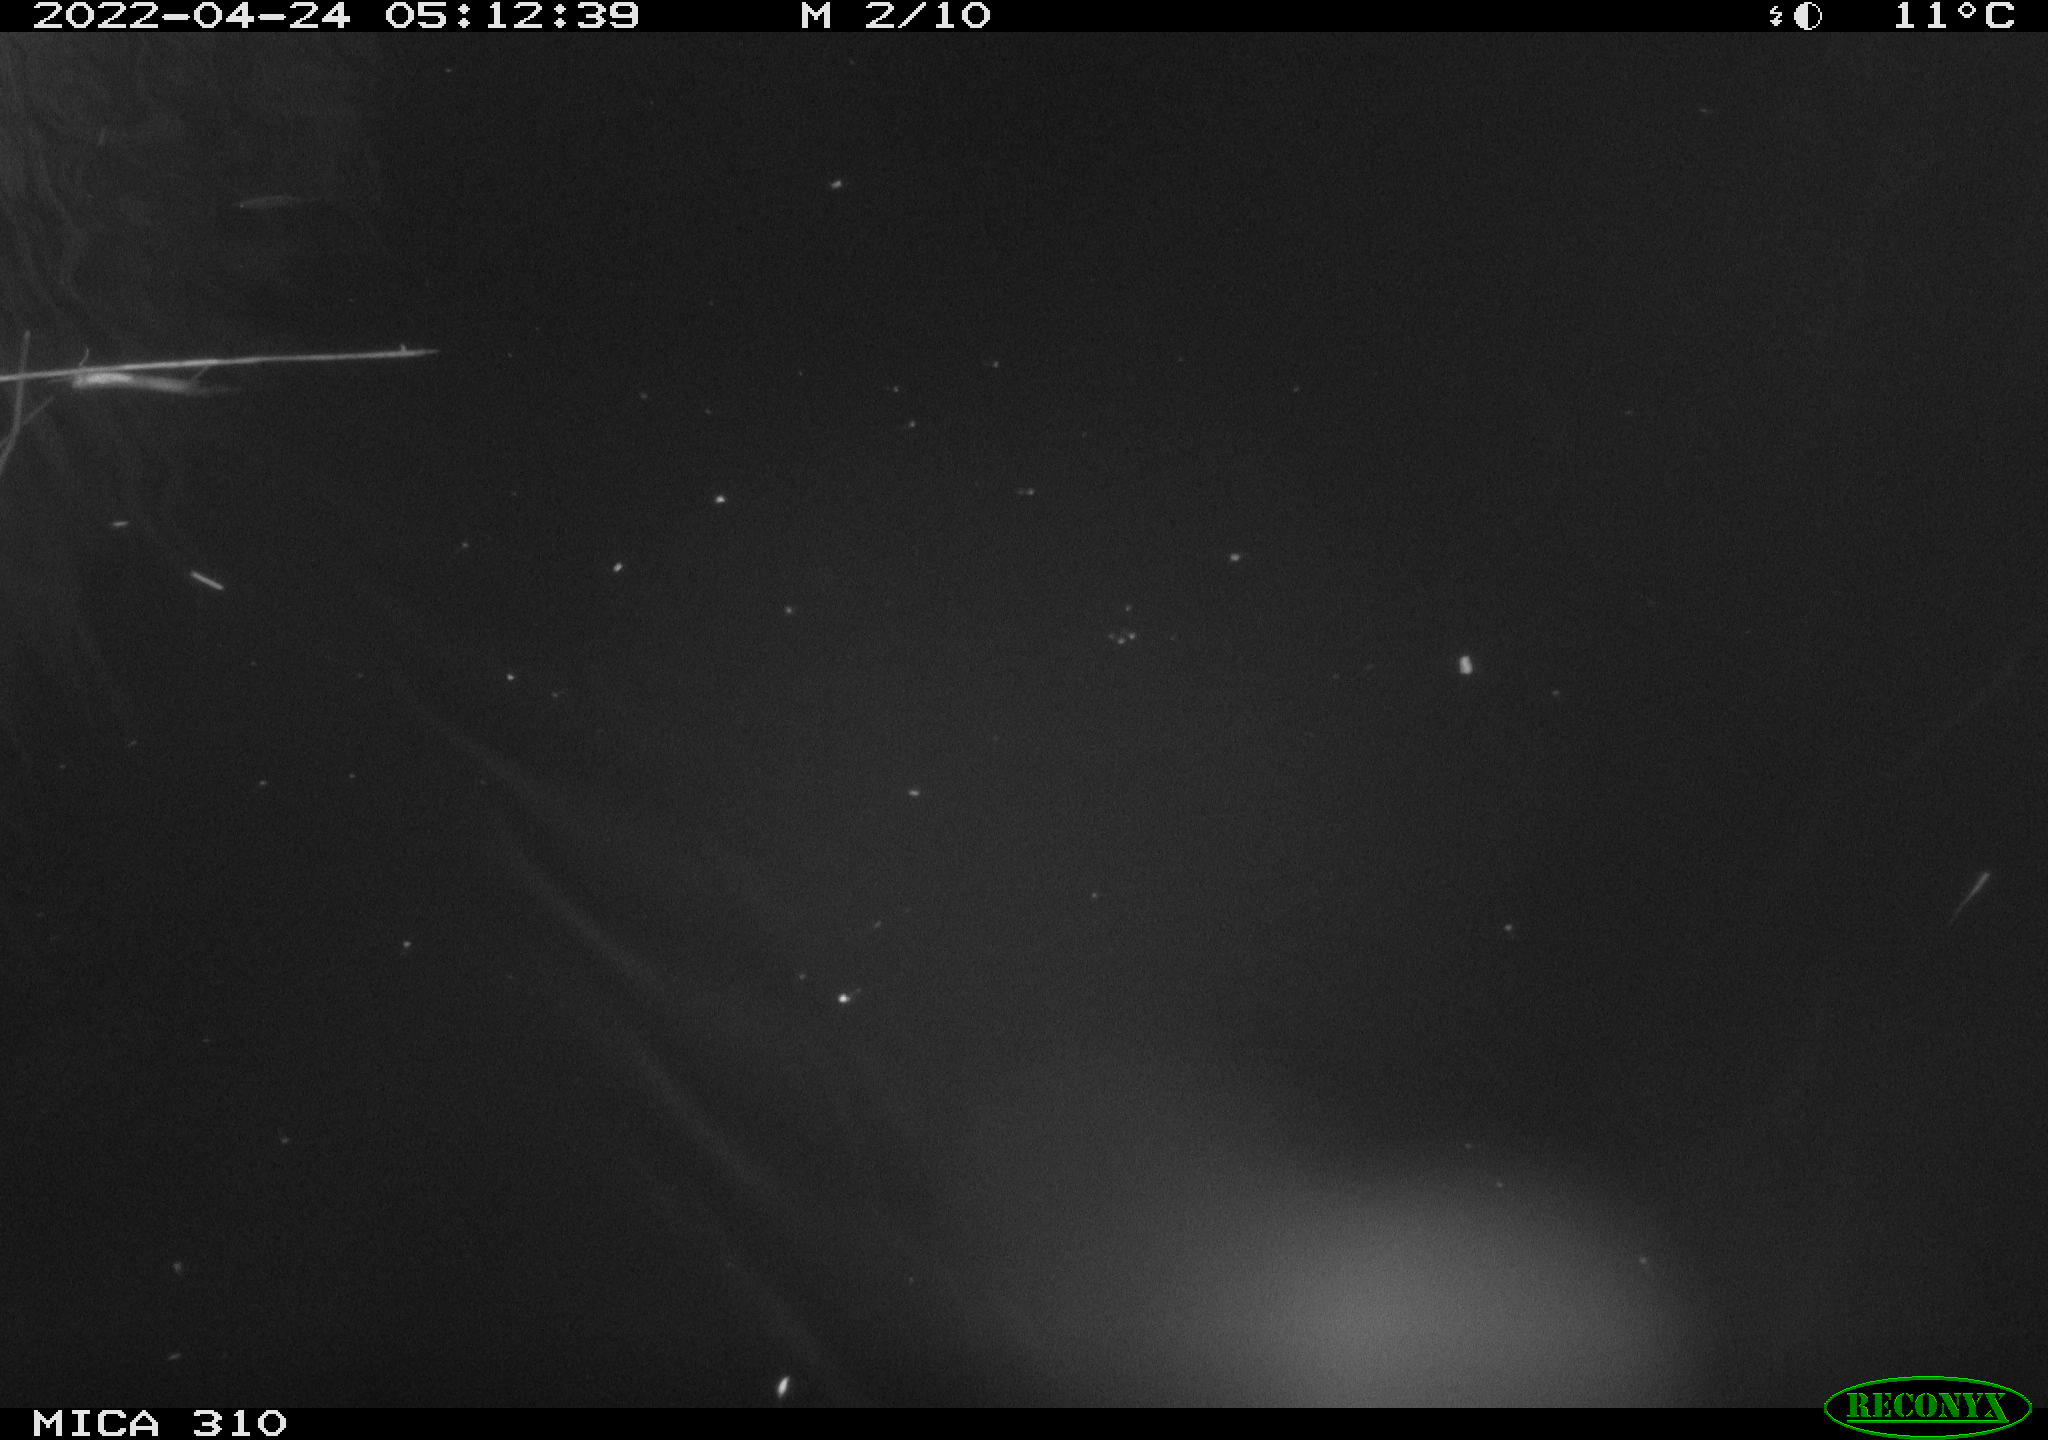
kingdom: Animalia
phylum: Chordata
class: Aves
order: Anseriformes
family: Anatidae
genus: Anas
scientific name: Anas platyrhynchos
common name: Mallard
